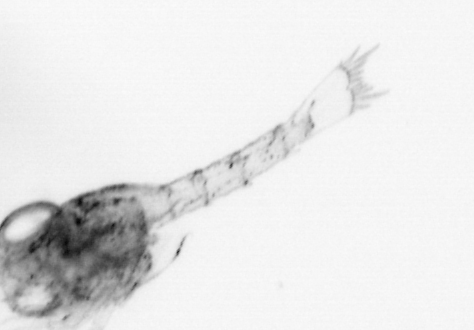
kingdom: Animalia
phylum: Arthropoda
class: Malacostraca
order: Decapoda
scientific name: Decapoda
